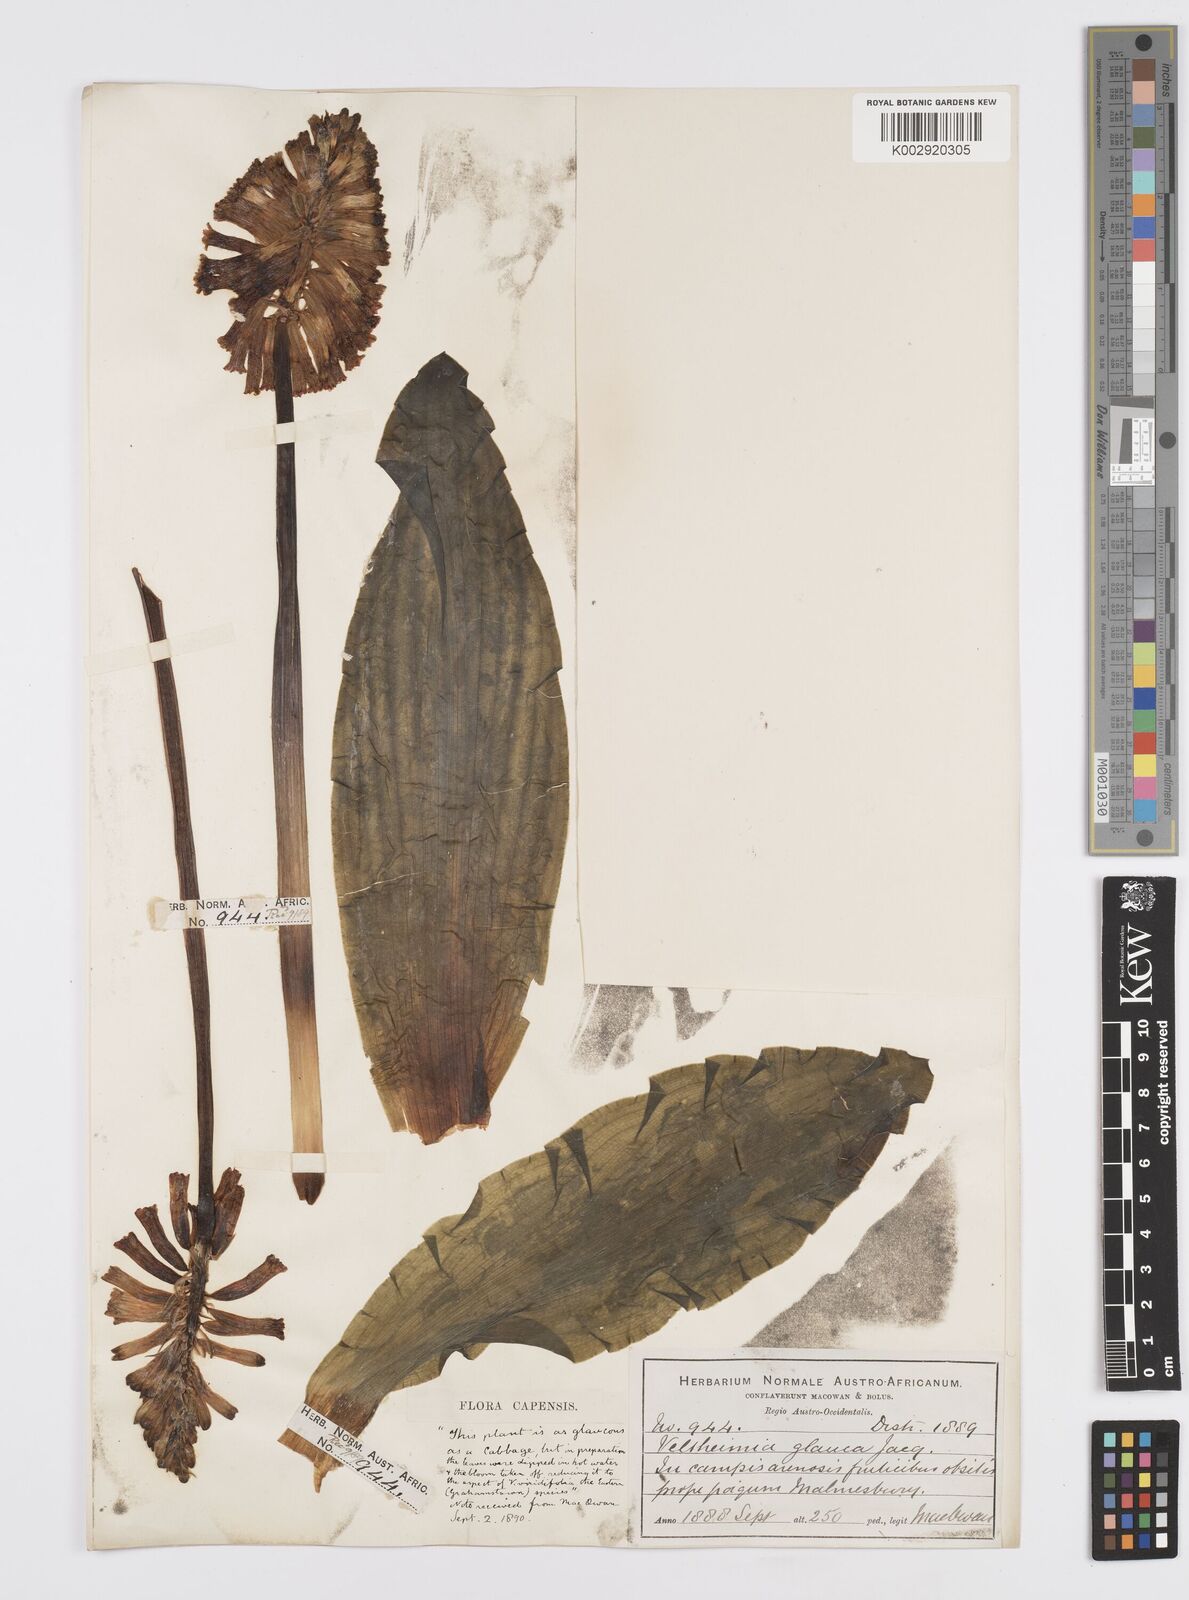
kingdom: Plantae
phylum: Tracheophyta
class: Liliopsida
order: Asparagales
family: Asparagaceae
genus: Veltheimia
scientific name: Veltheimia capensis
